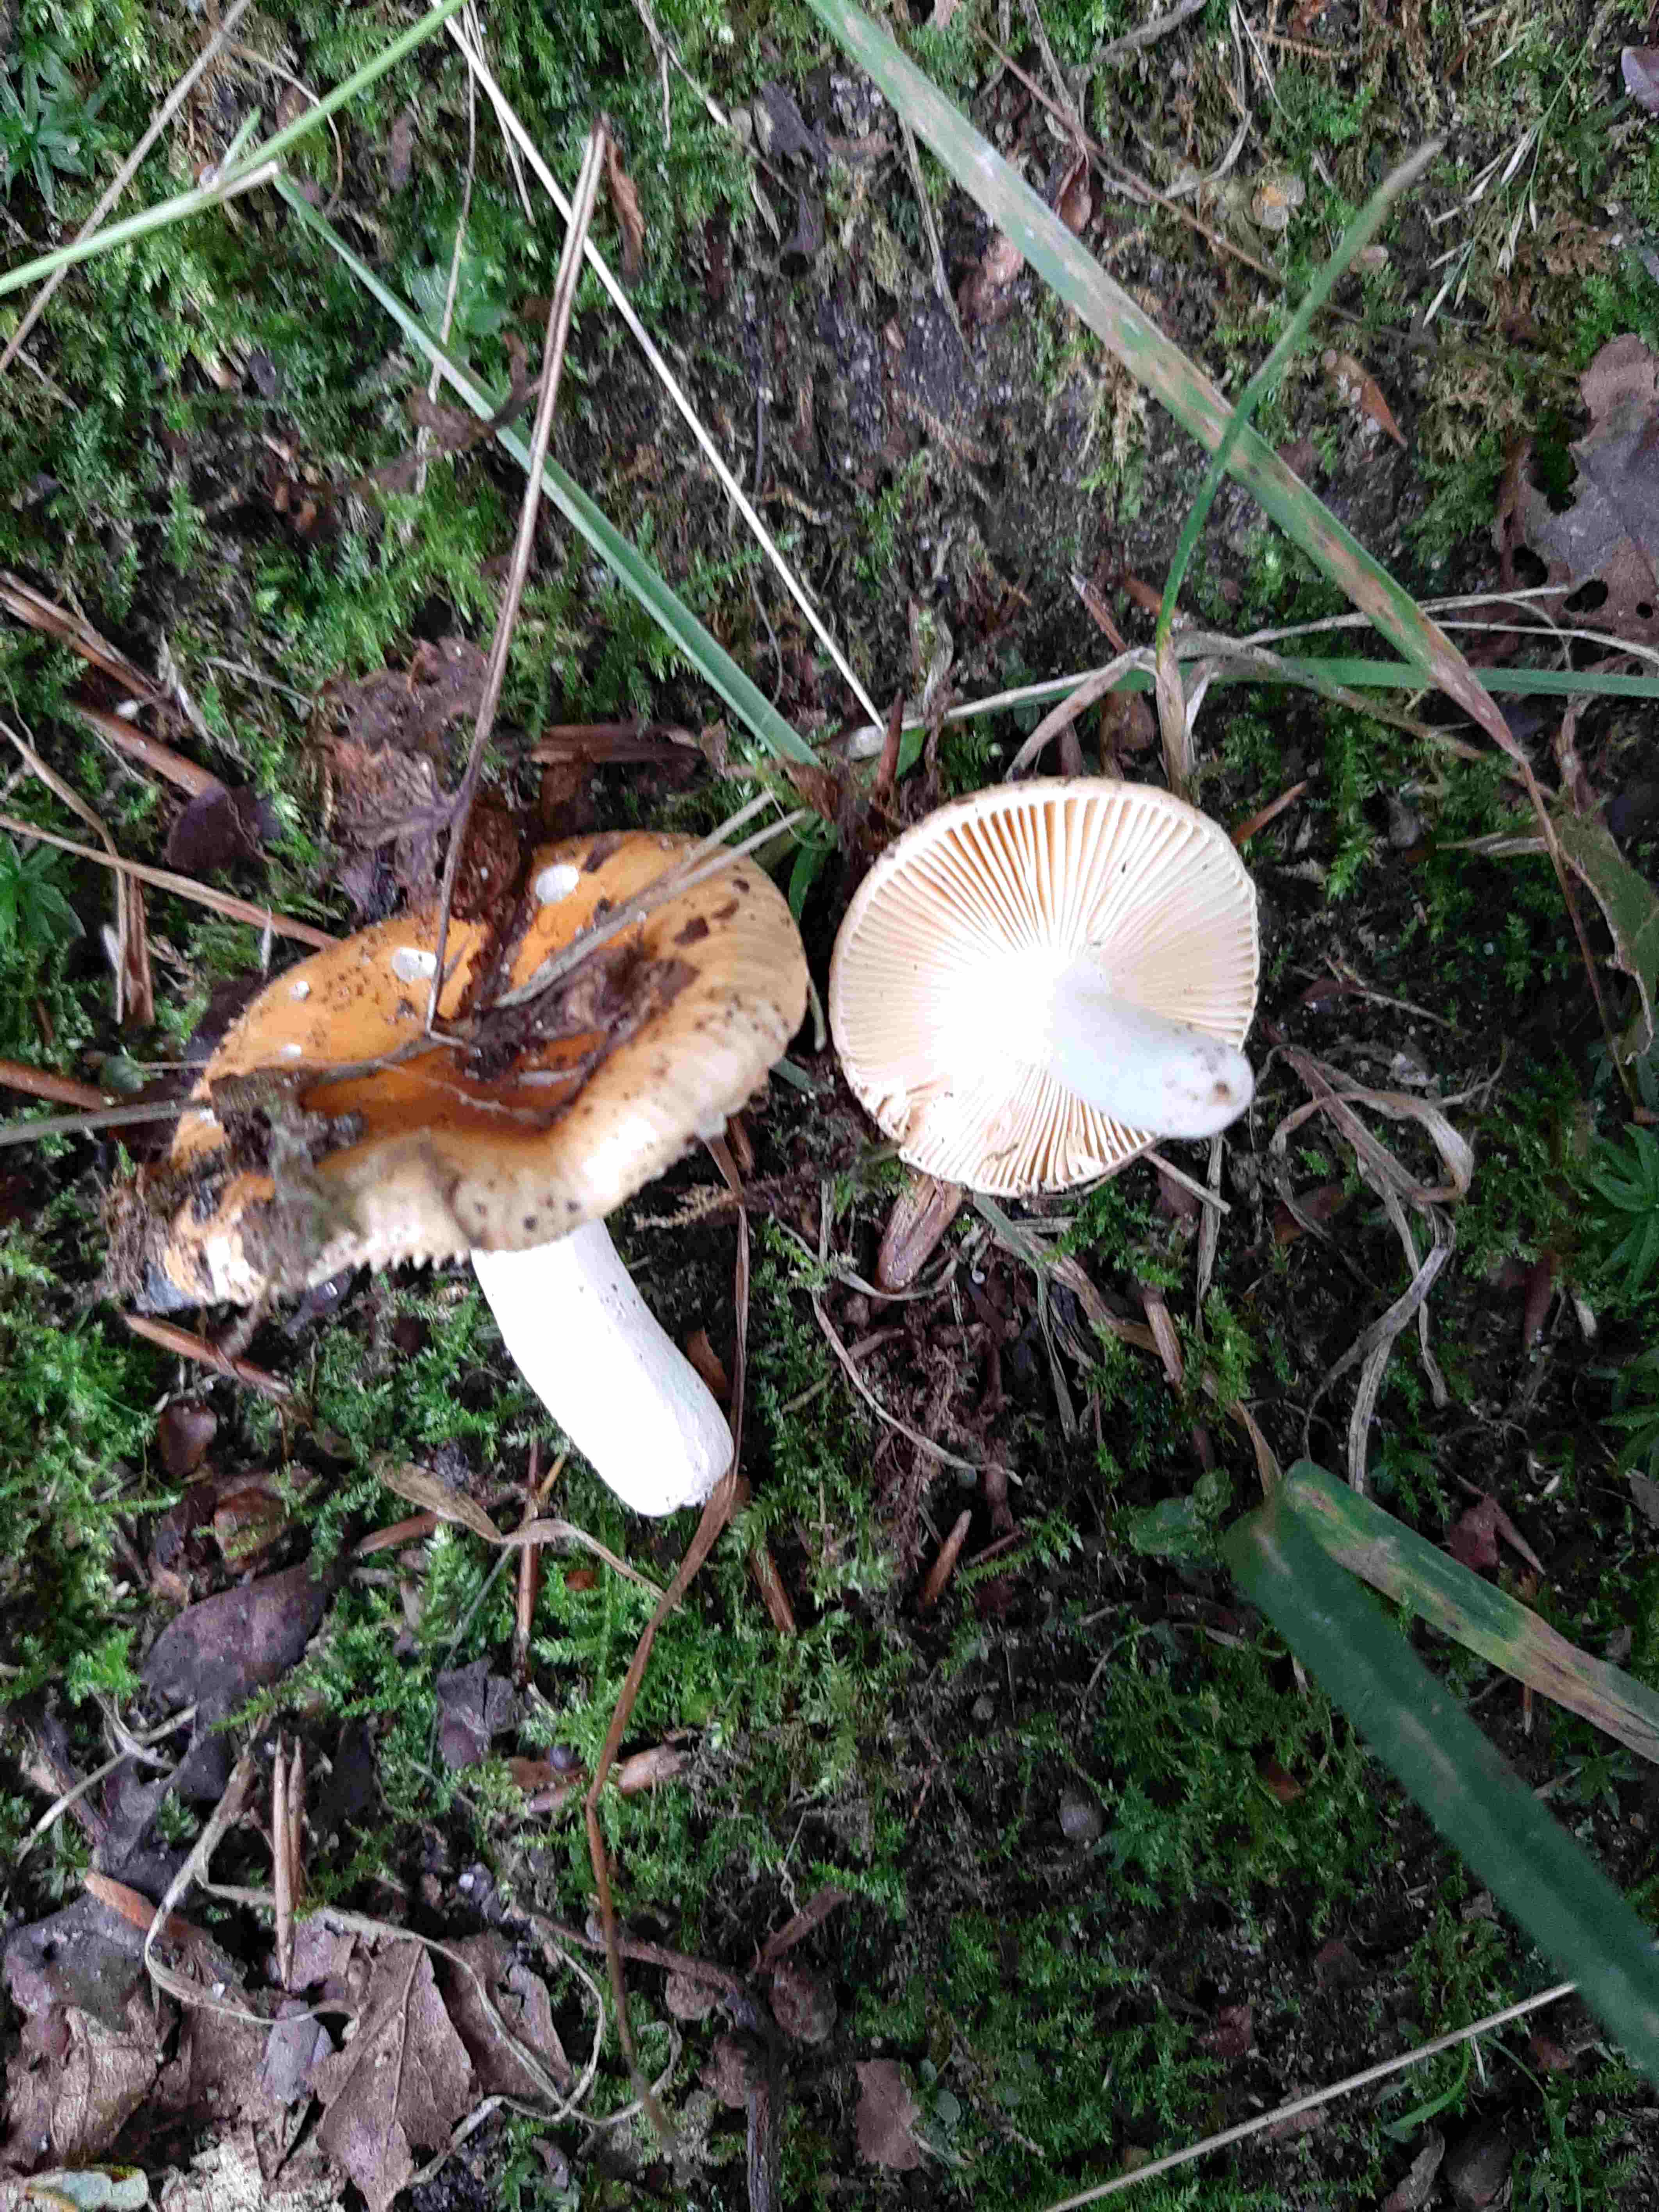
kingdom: Fungi
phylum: Basidiomycota
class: Agaricomycetes
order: Russulales
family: Russulaceae
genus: Russula
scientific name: Russula risigallina
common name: abrikos-skørhat
